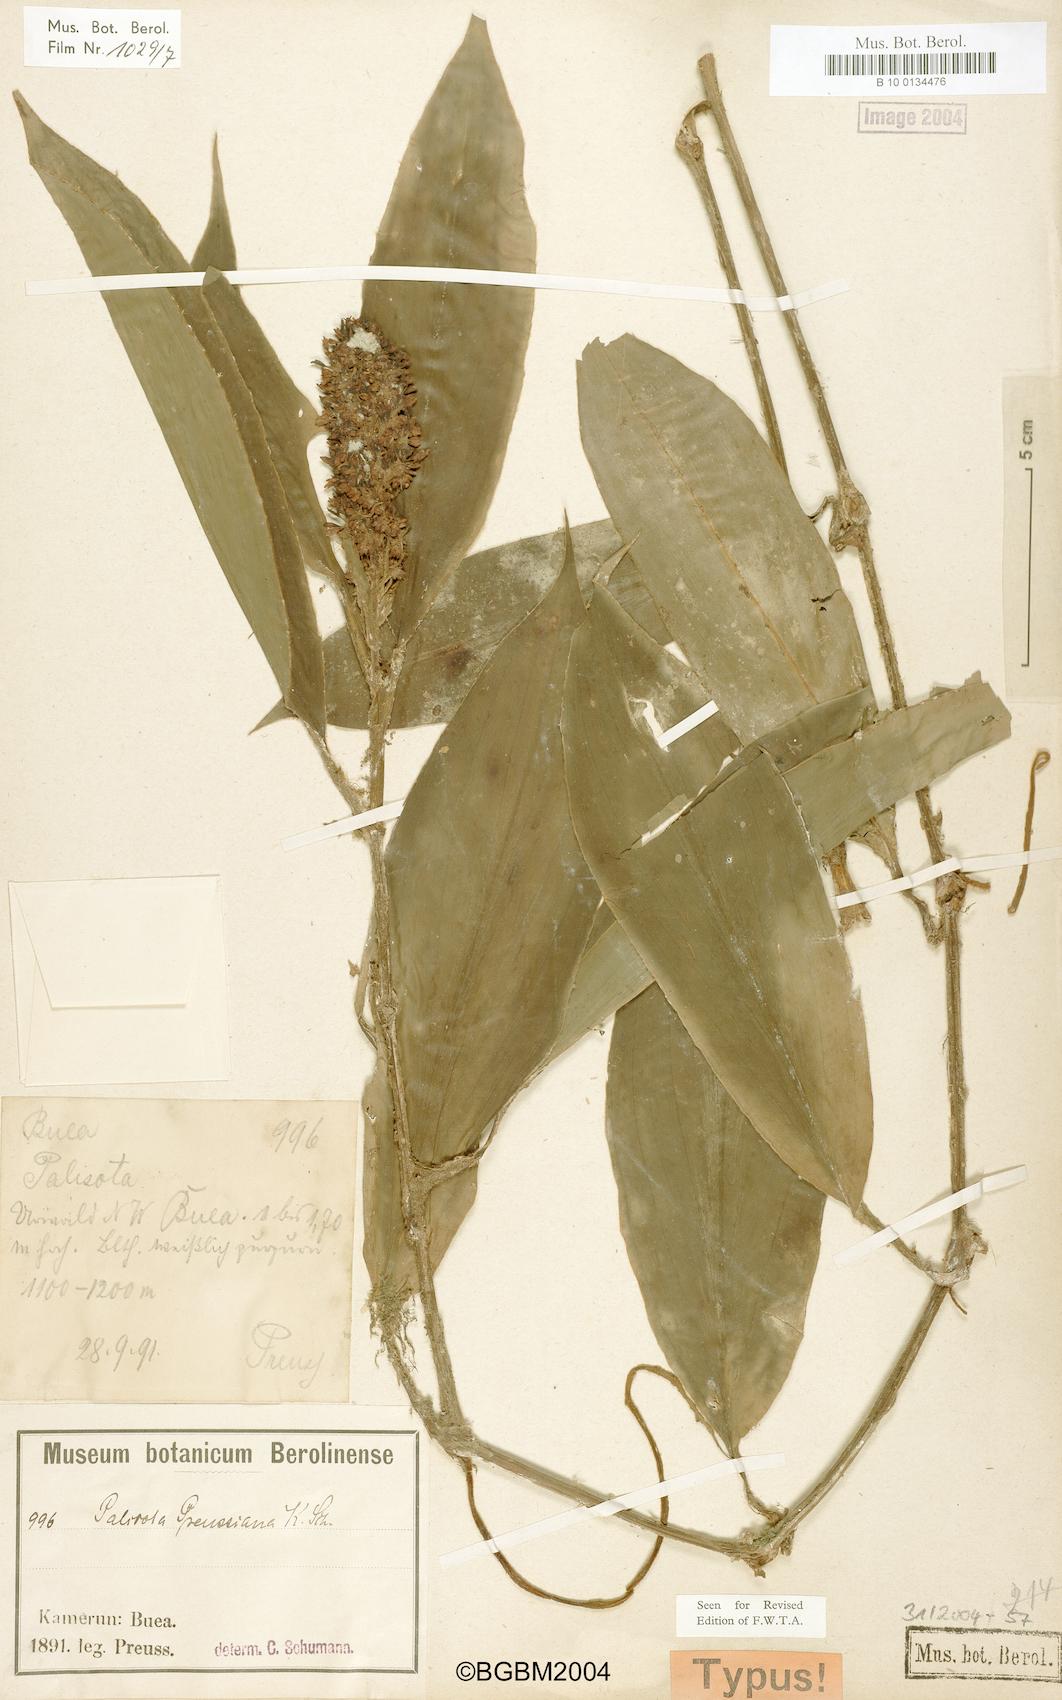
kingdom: Plantae
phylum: Tracheophyta
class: Liliopsida
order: Commelinales
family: Commelinaceae
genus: Palisota
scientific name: Palisota preussiana
